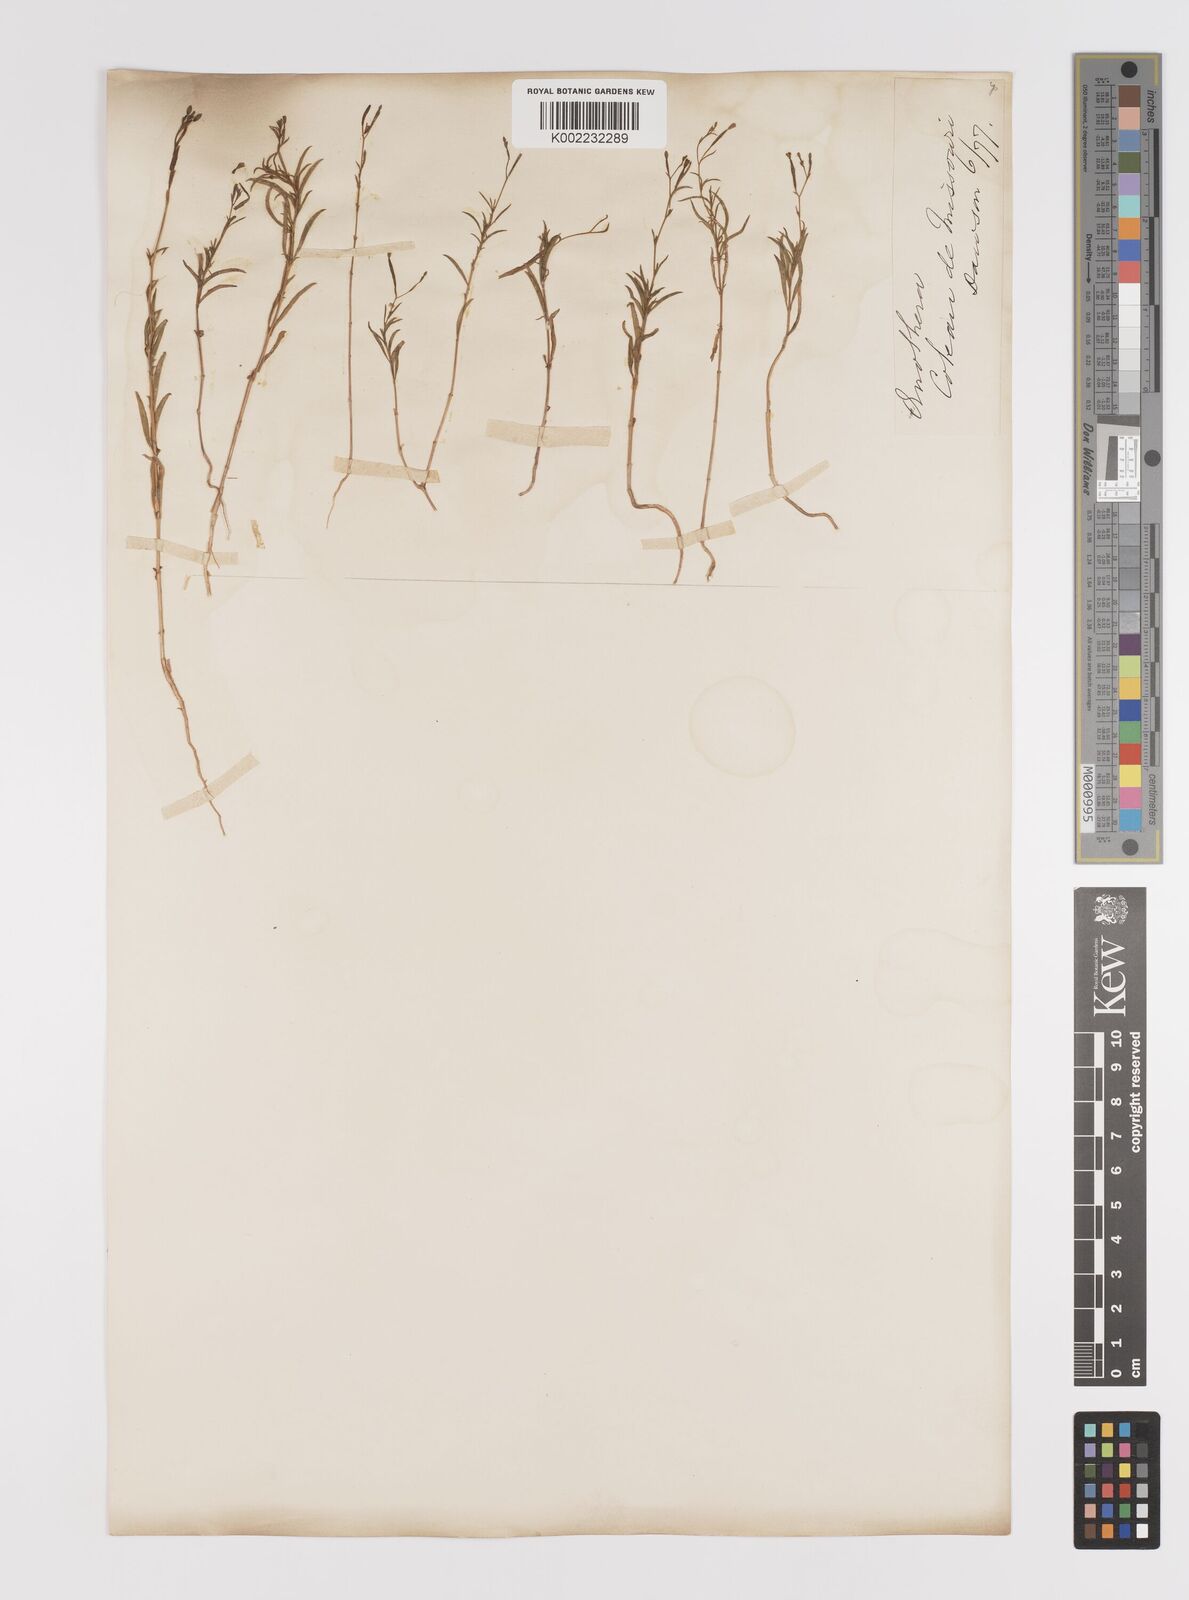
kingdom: Plantae
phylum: Tracheophyta
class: Magnoliopsida
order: Myrtales
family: Onagraceae
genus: Epilobium
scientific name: Epilobium
